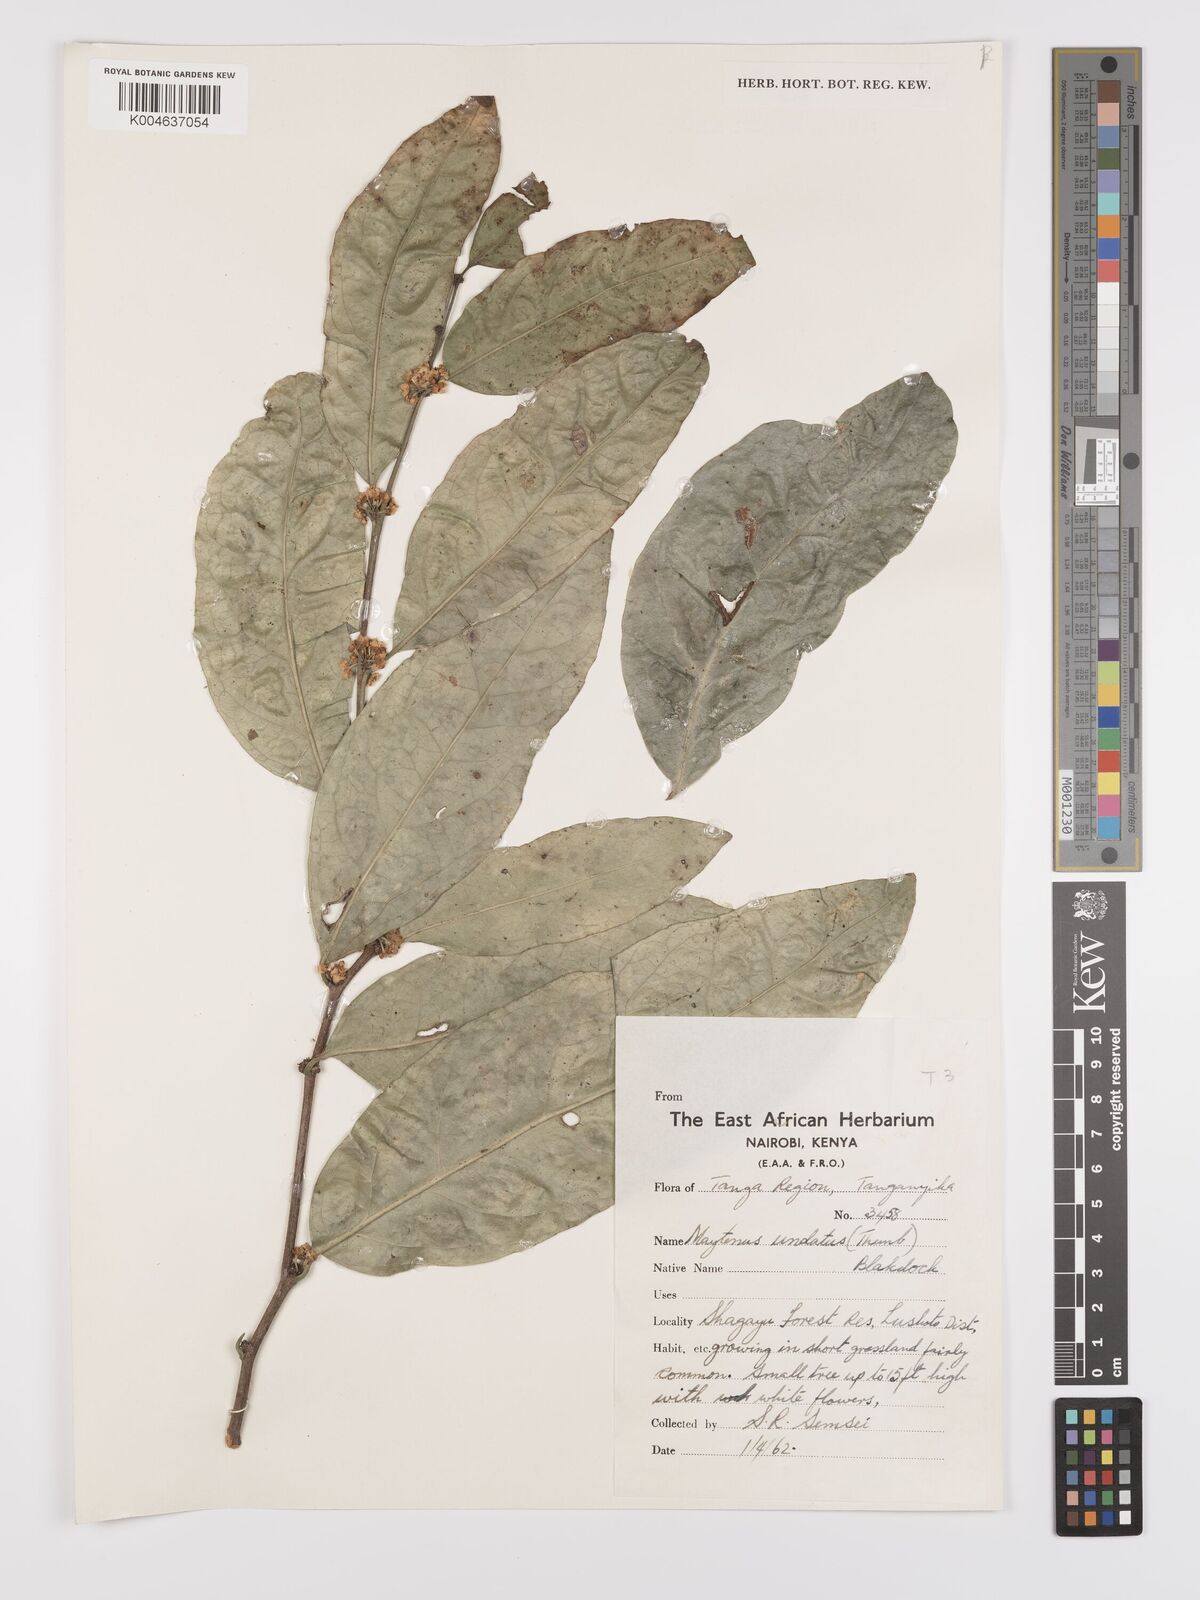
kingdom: Plantae
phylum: Tracheophyta
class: Magnoliopsida
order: Celastrales
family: Celastraceae
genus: Gymnosporia
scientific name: Gymnosporia undata
